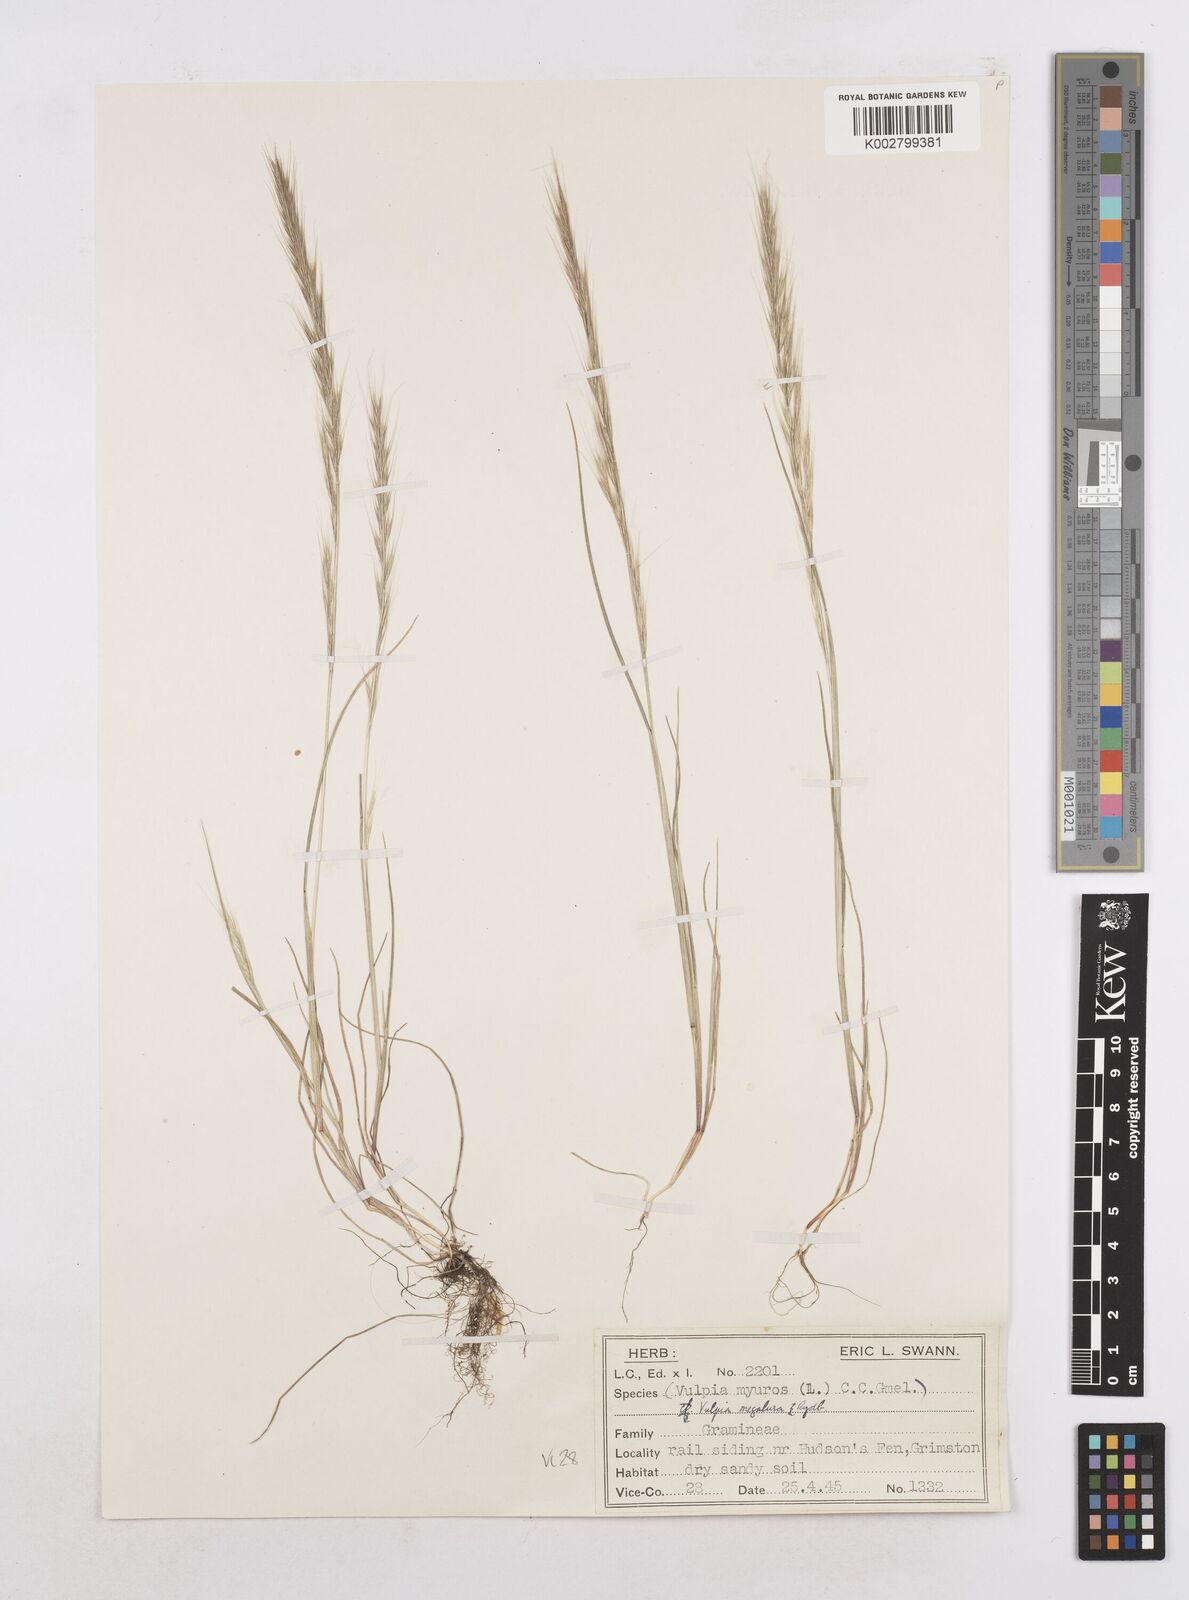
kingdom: Plantae
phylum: Tracheophyta
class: Liliopsida
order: Poales
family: Poaceae
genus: Festuca
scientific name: Festuca myuros
